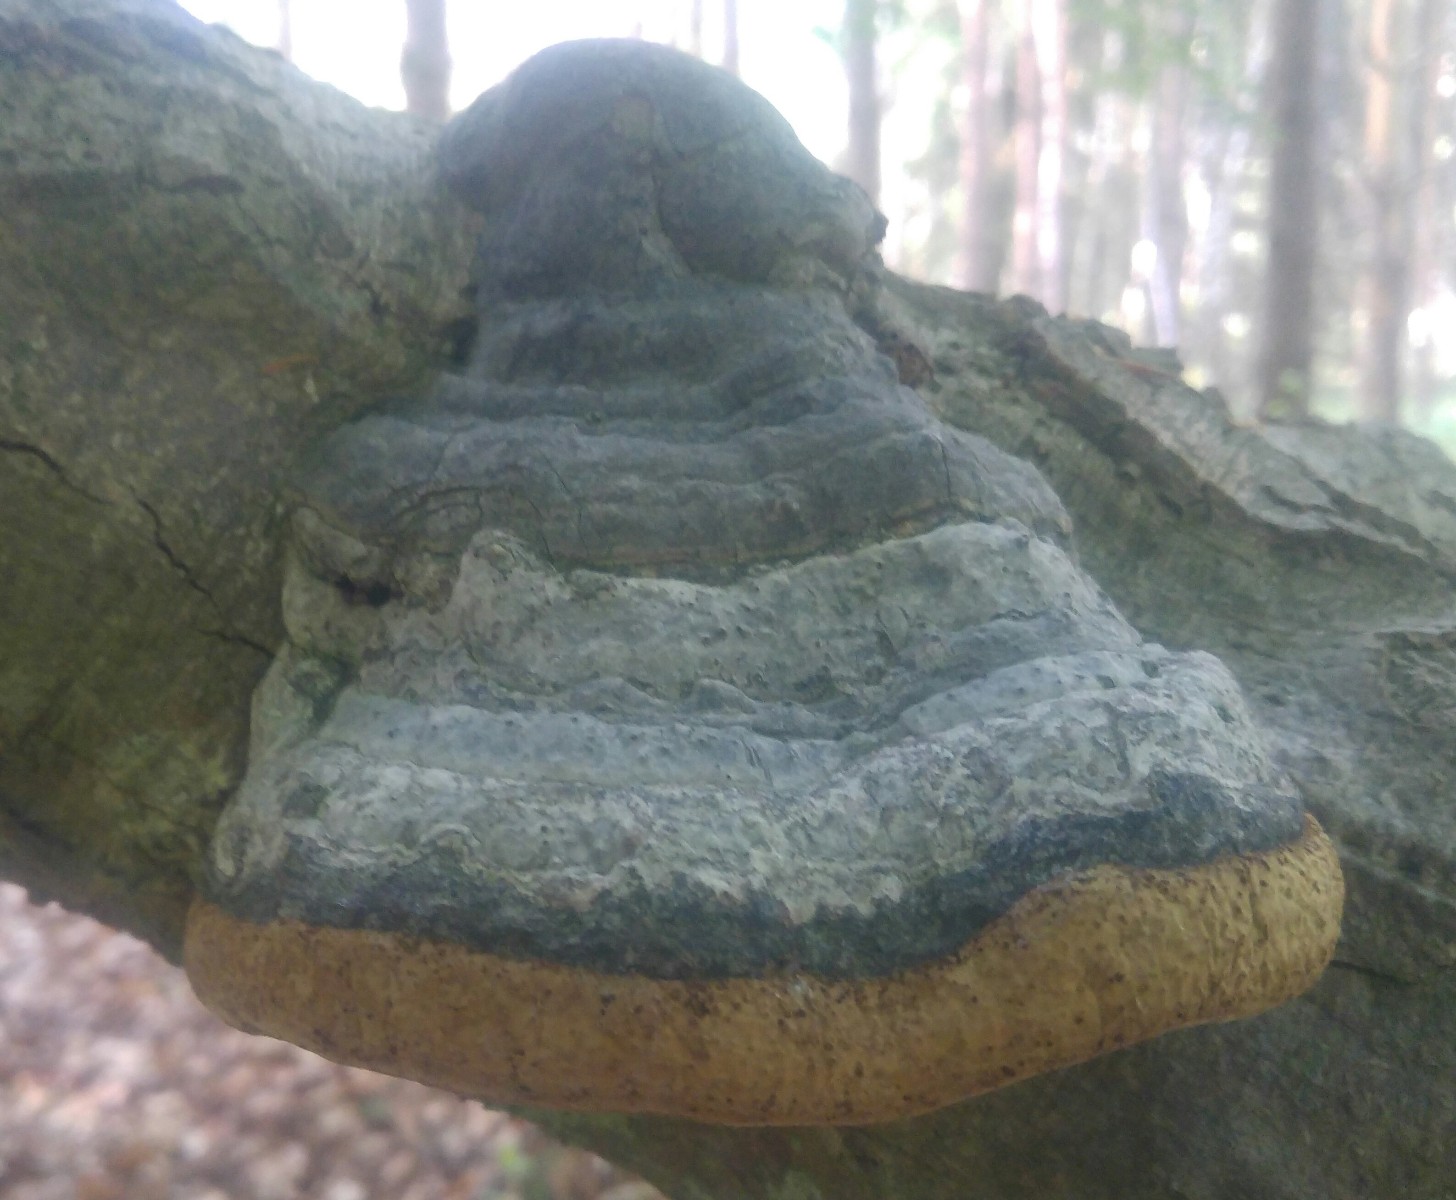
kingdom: Fungi
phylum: Basidiomycota
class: Agaricomycetes
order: Polyporales
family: Polyporaceae
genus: Fomes
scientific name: Fomes fomentarius
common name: tøndersvamp
